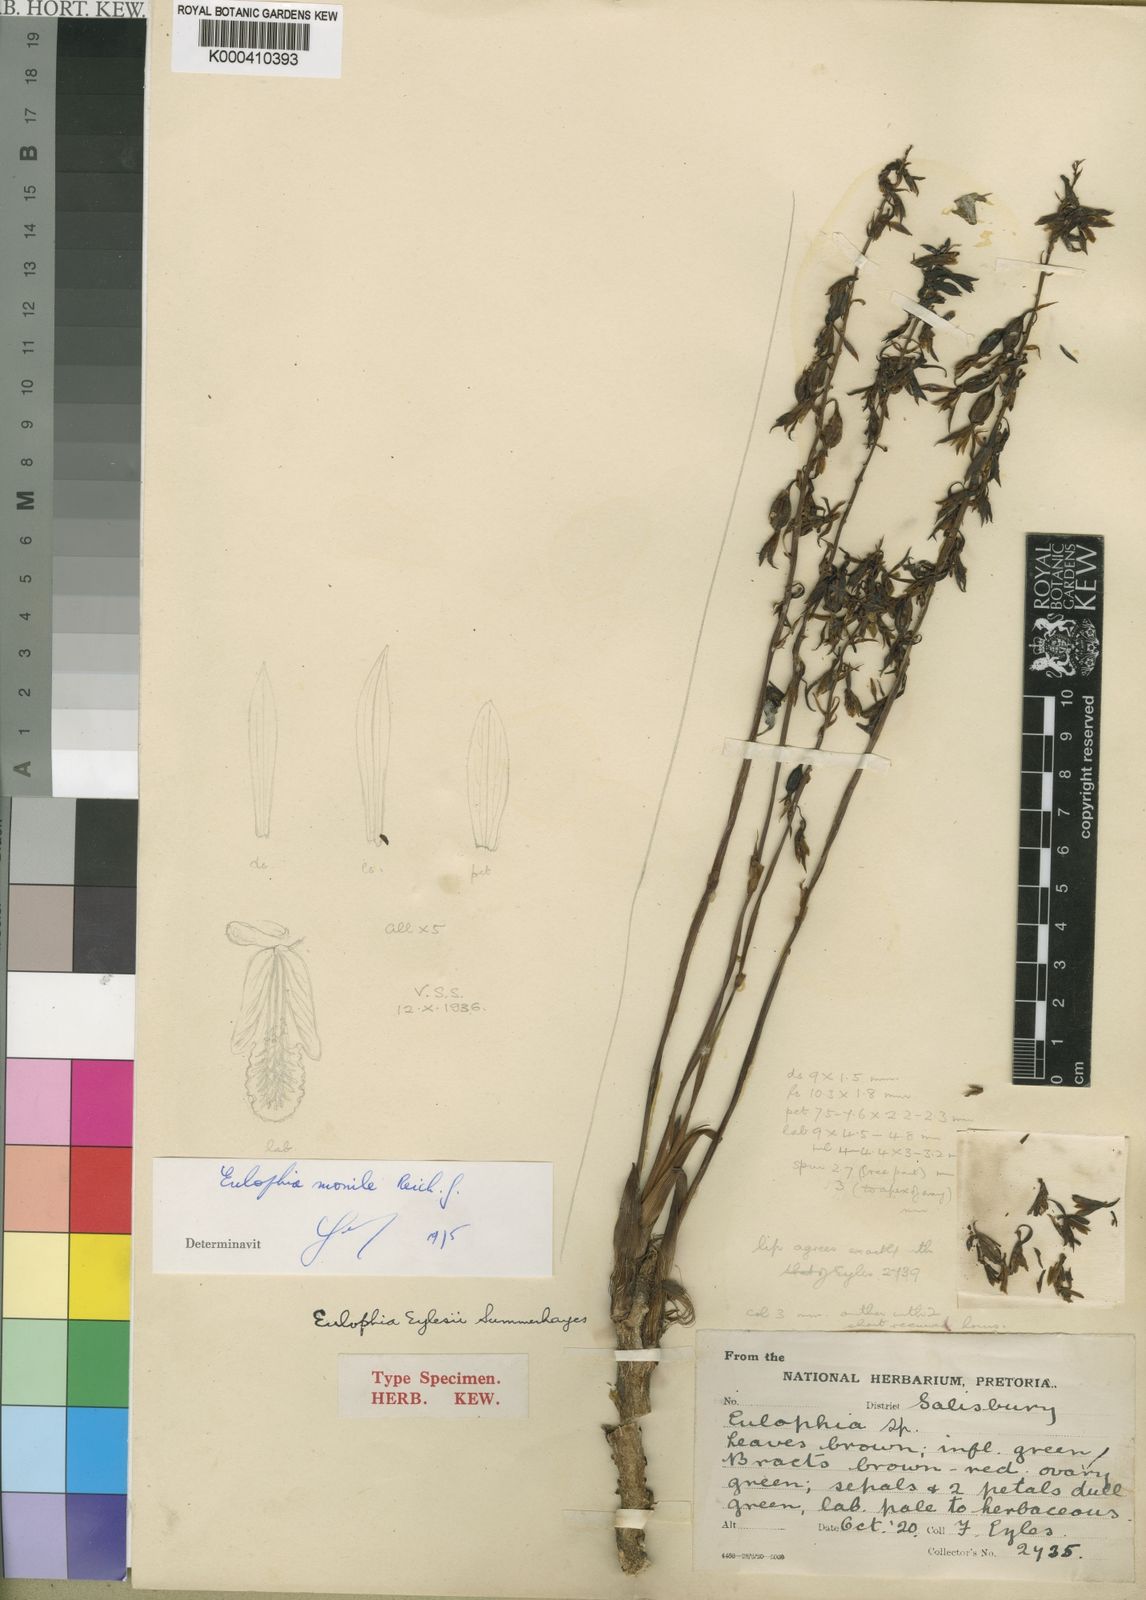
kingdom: Plantae
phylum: Tracheophyta
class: Liliopsida
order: Asparagales
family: Orchidaceae
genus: Eulophia
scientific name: Eulophia eylesii
